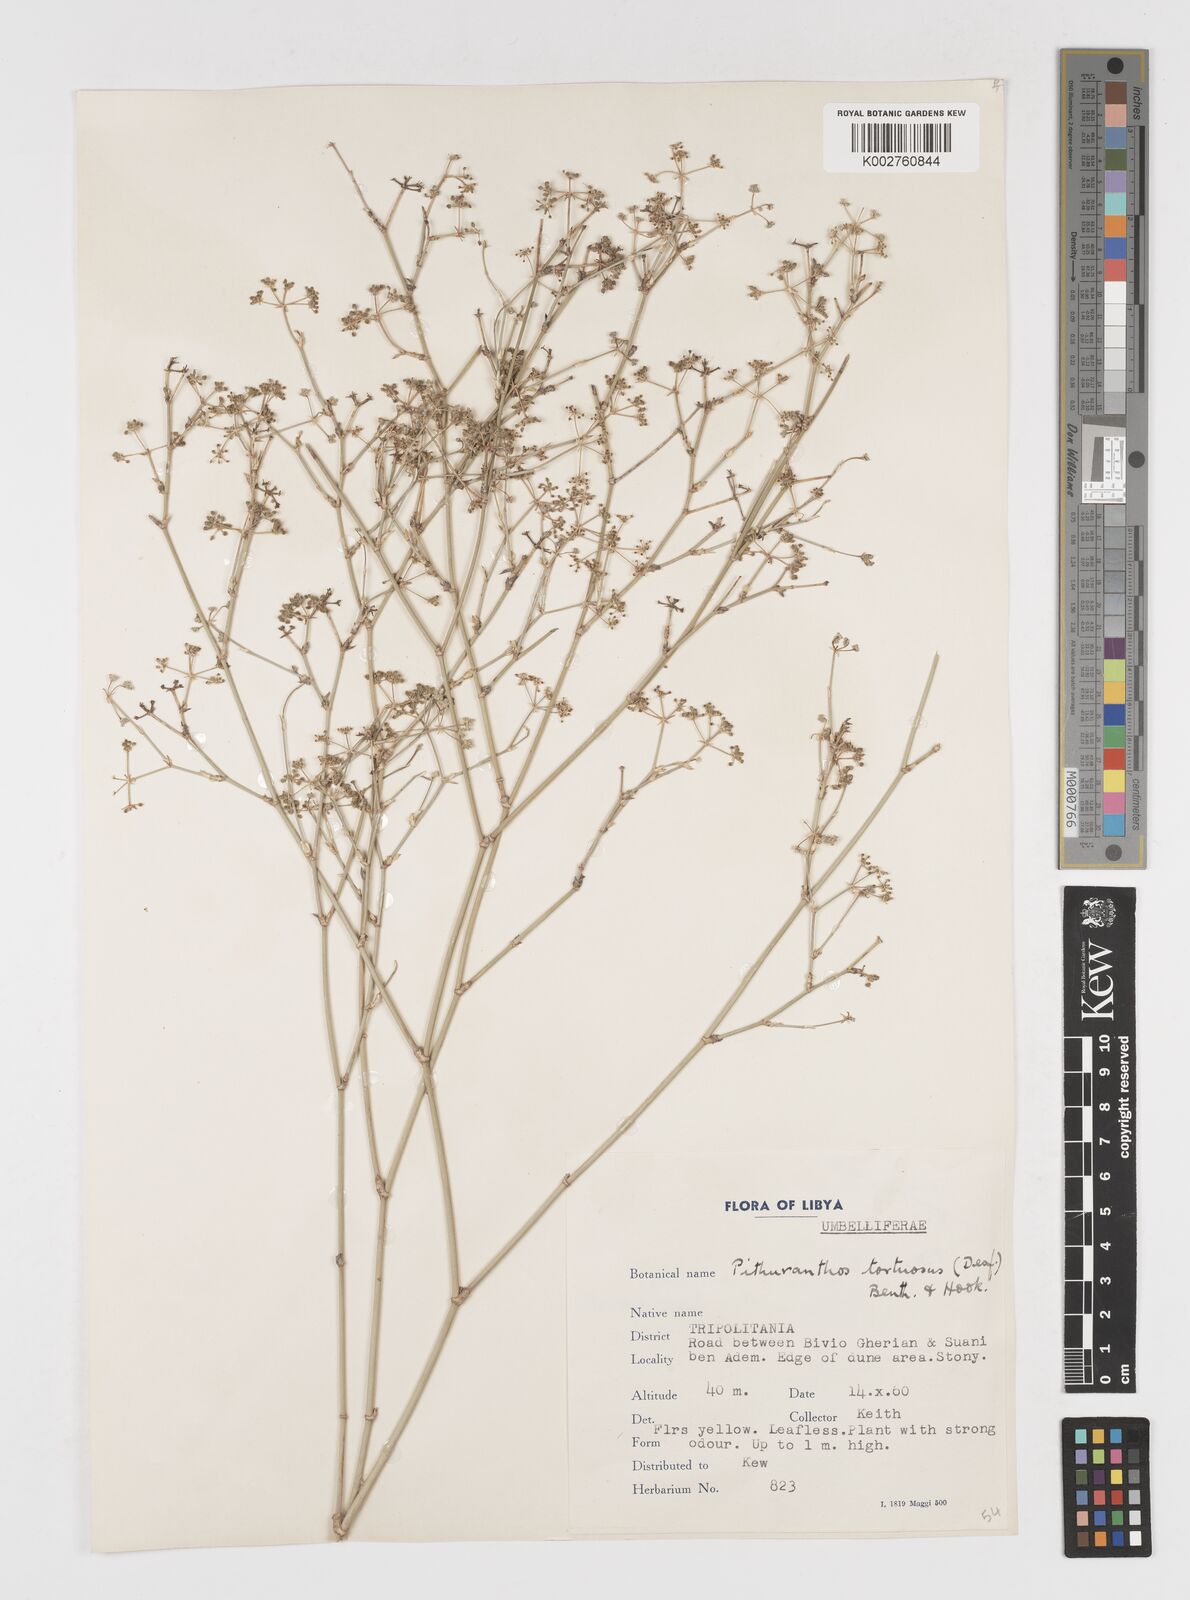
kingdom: Plantae
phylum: Tracheophyta
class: Magnoliopsida
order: Apiales
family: Apiaceae
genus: Deverra
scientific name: Deverra tortuosa
